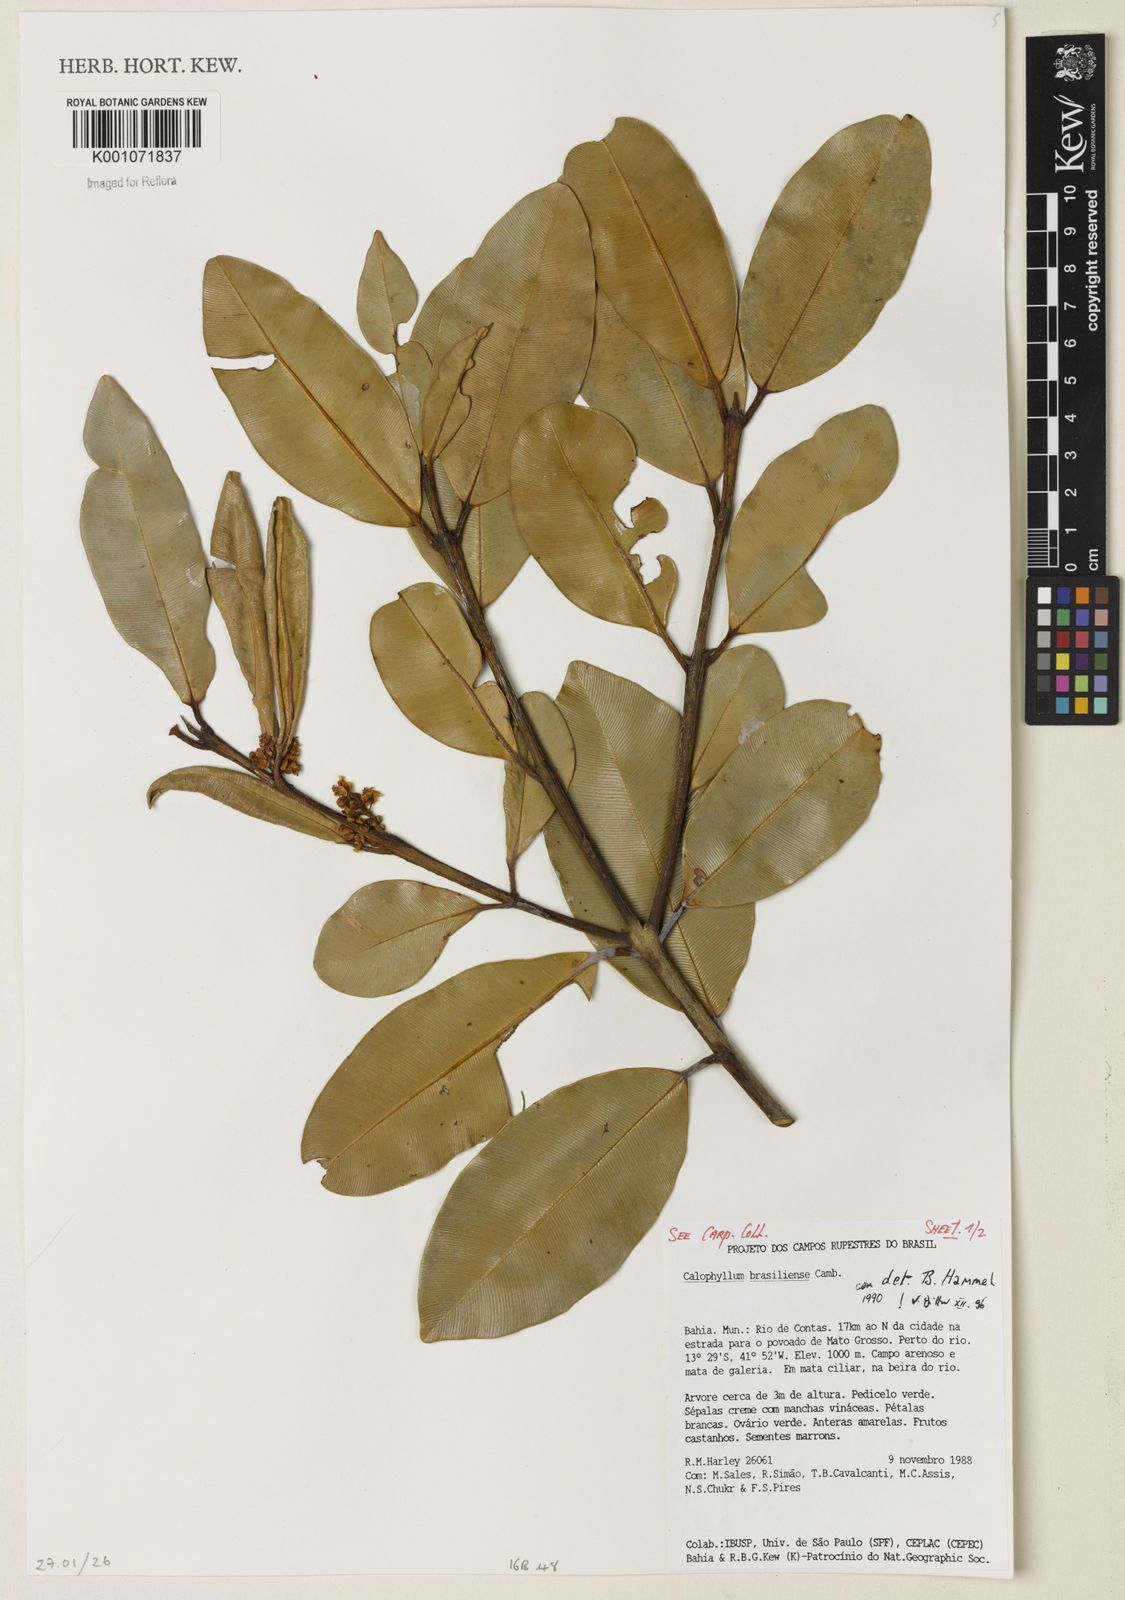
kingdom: Plantae
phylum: Tracheophyta
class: Magnoliopsida
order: Malpighiales
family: Calophyllaceae
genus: Calophyllum
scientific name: Calophyllum brasiliense
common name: Santa maria
